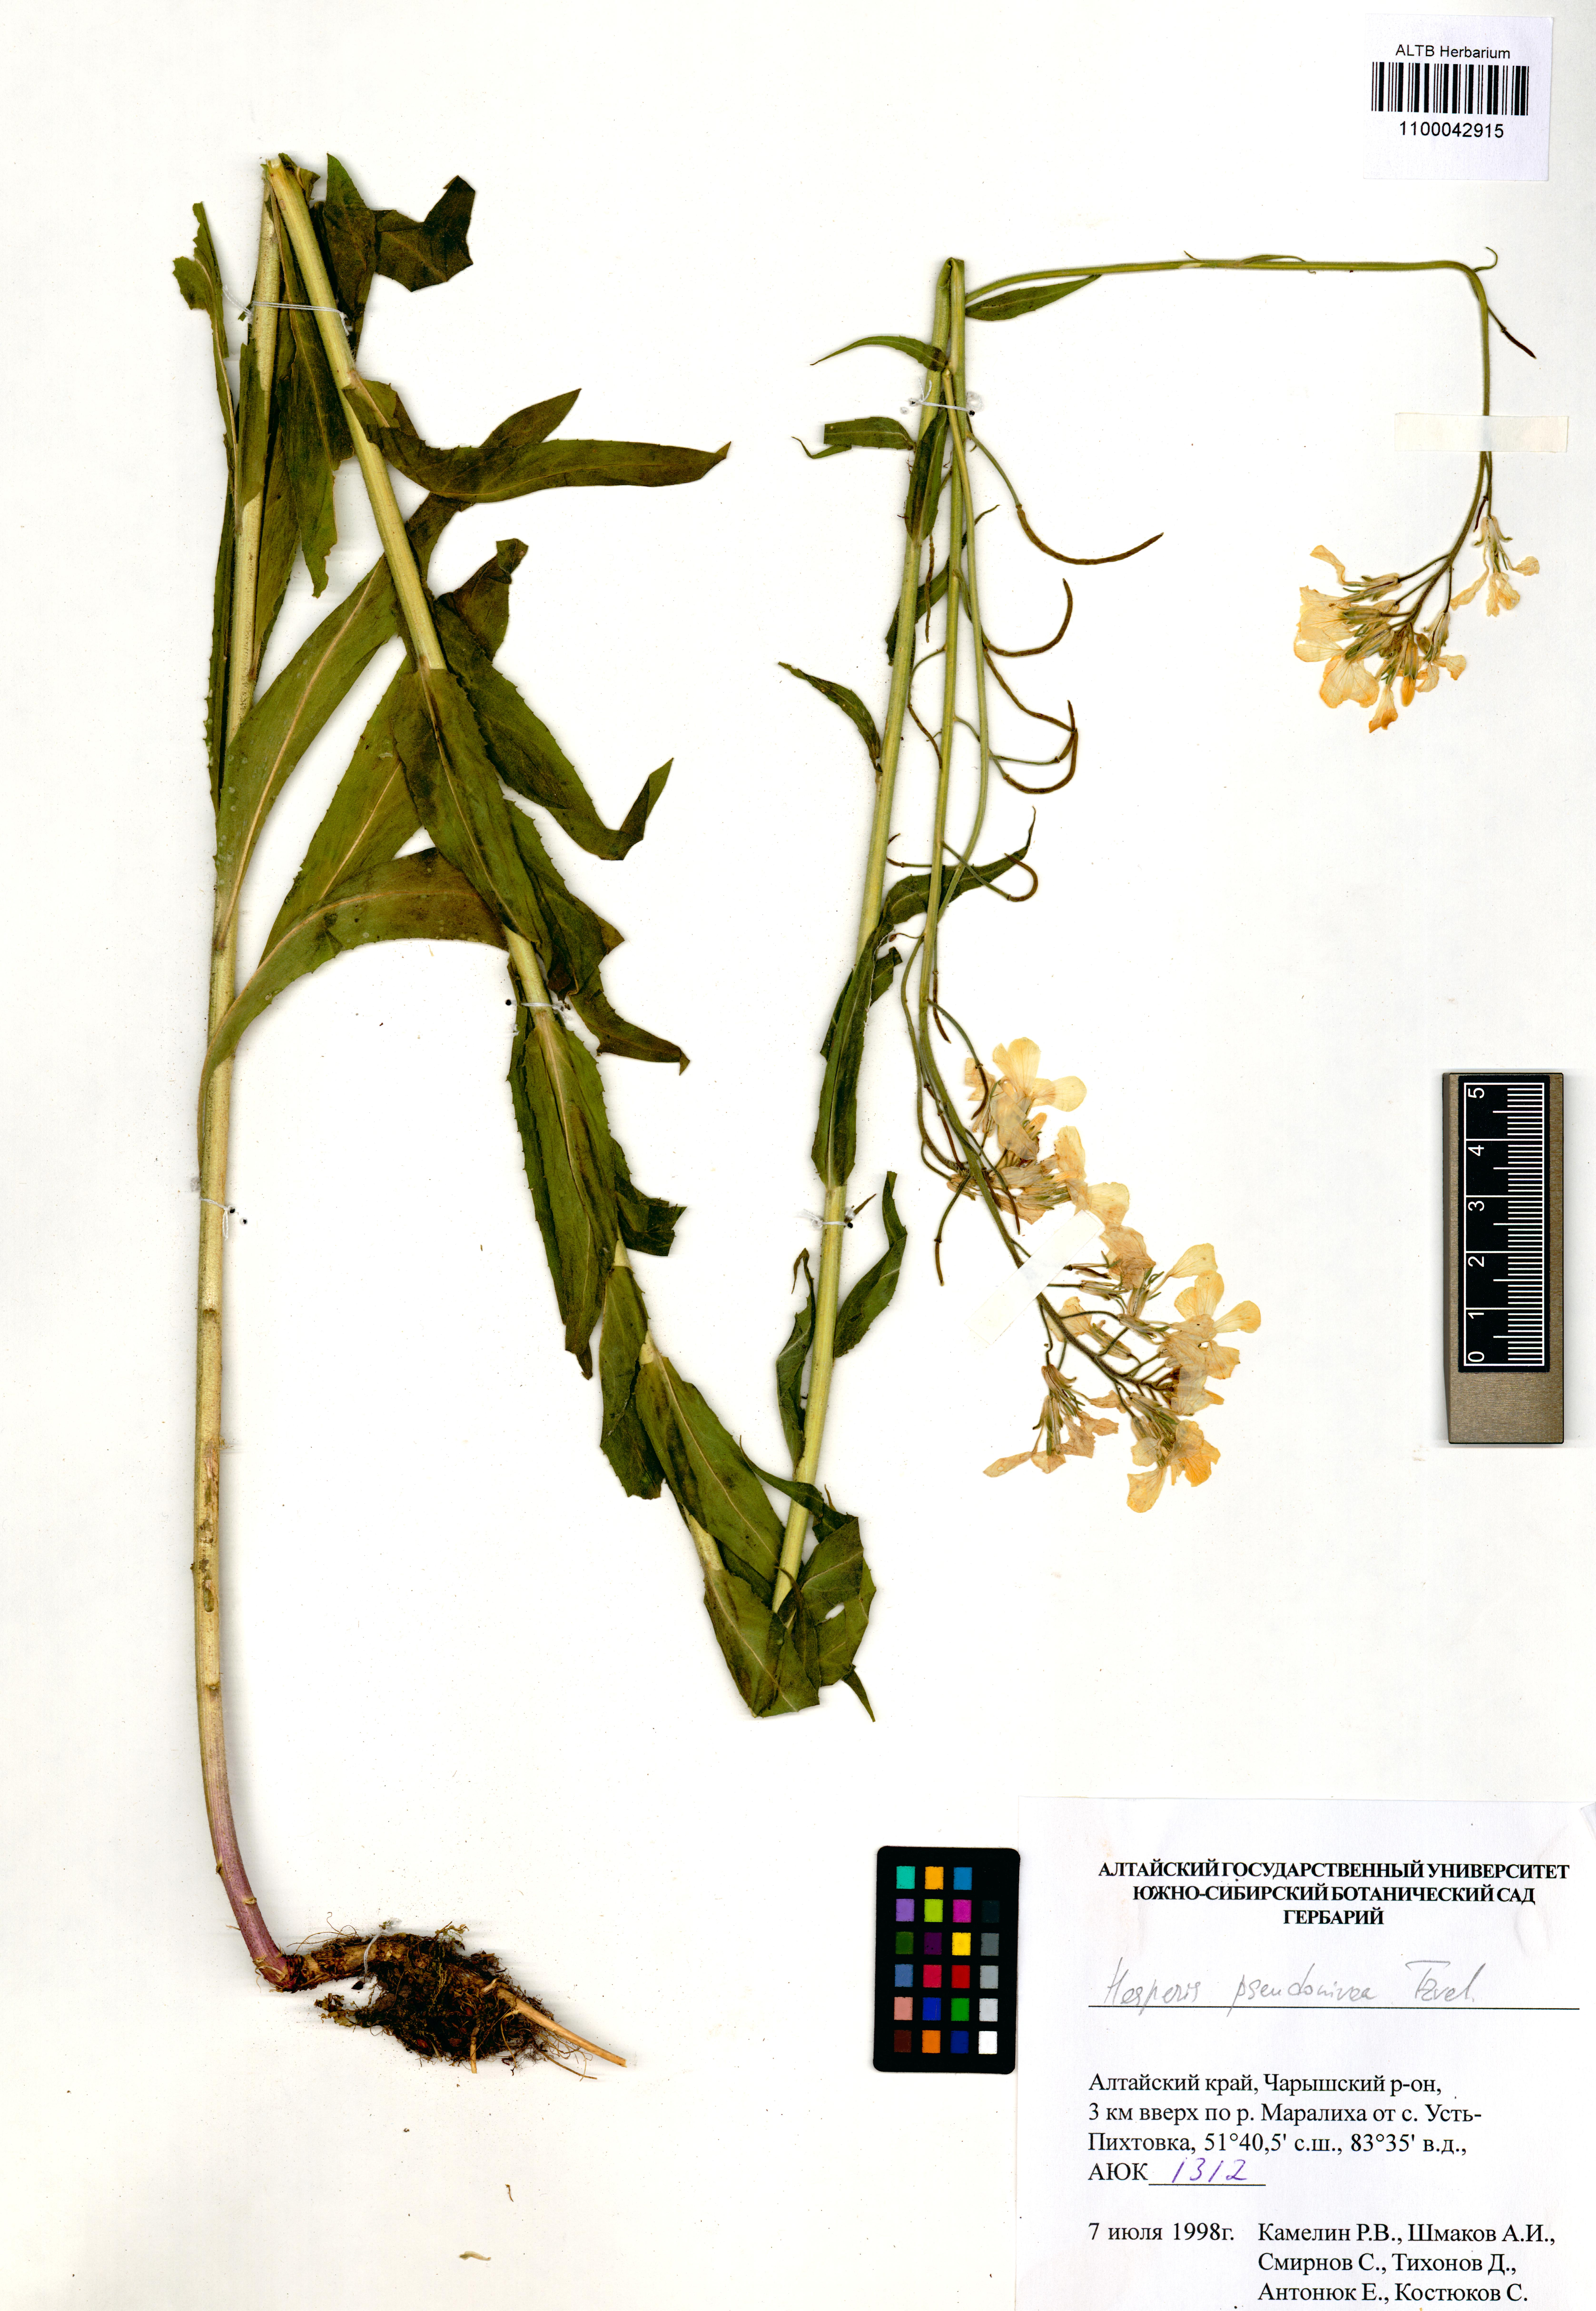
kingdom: Plantae
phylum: Tracheophyta
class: Magnoliopsida
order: Brassicales
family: Brassicaceae
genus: Hesperis
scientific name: Hesperis sibirica
